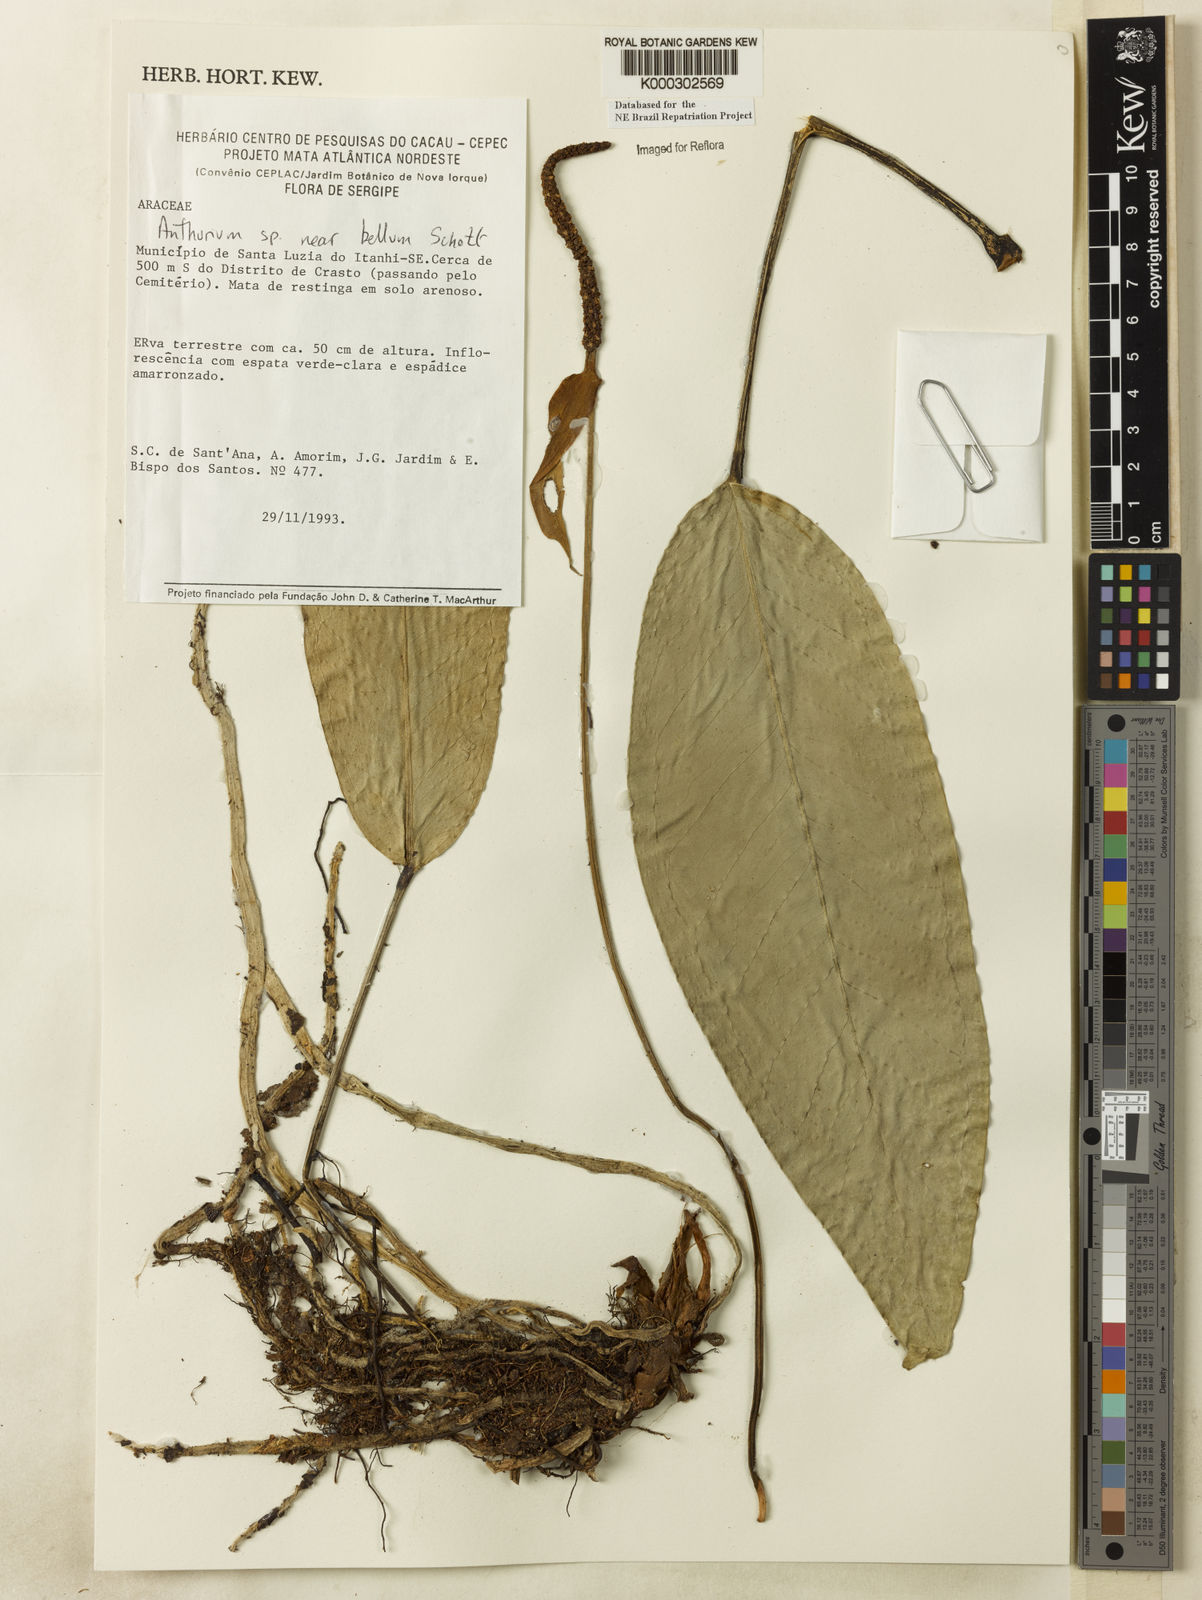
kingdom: Plantae
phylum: Tracheophyta
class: Liliopsida
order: Alismatales
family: Araceae
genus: Anthurium
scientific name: Anthurium bellum
